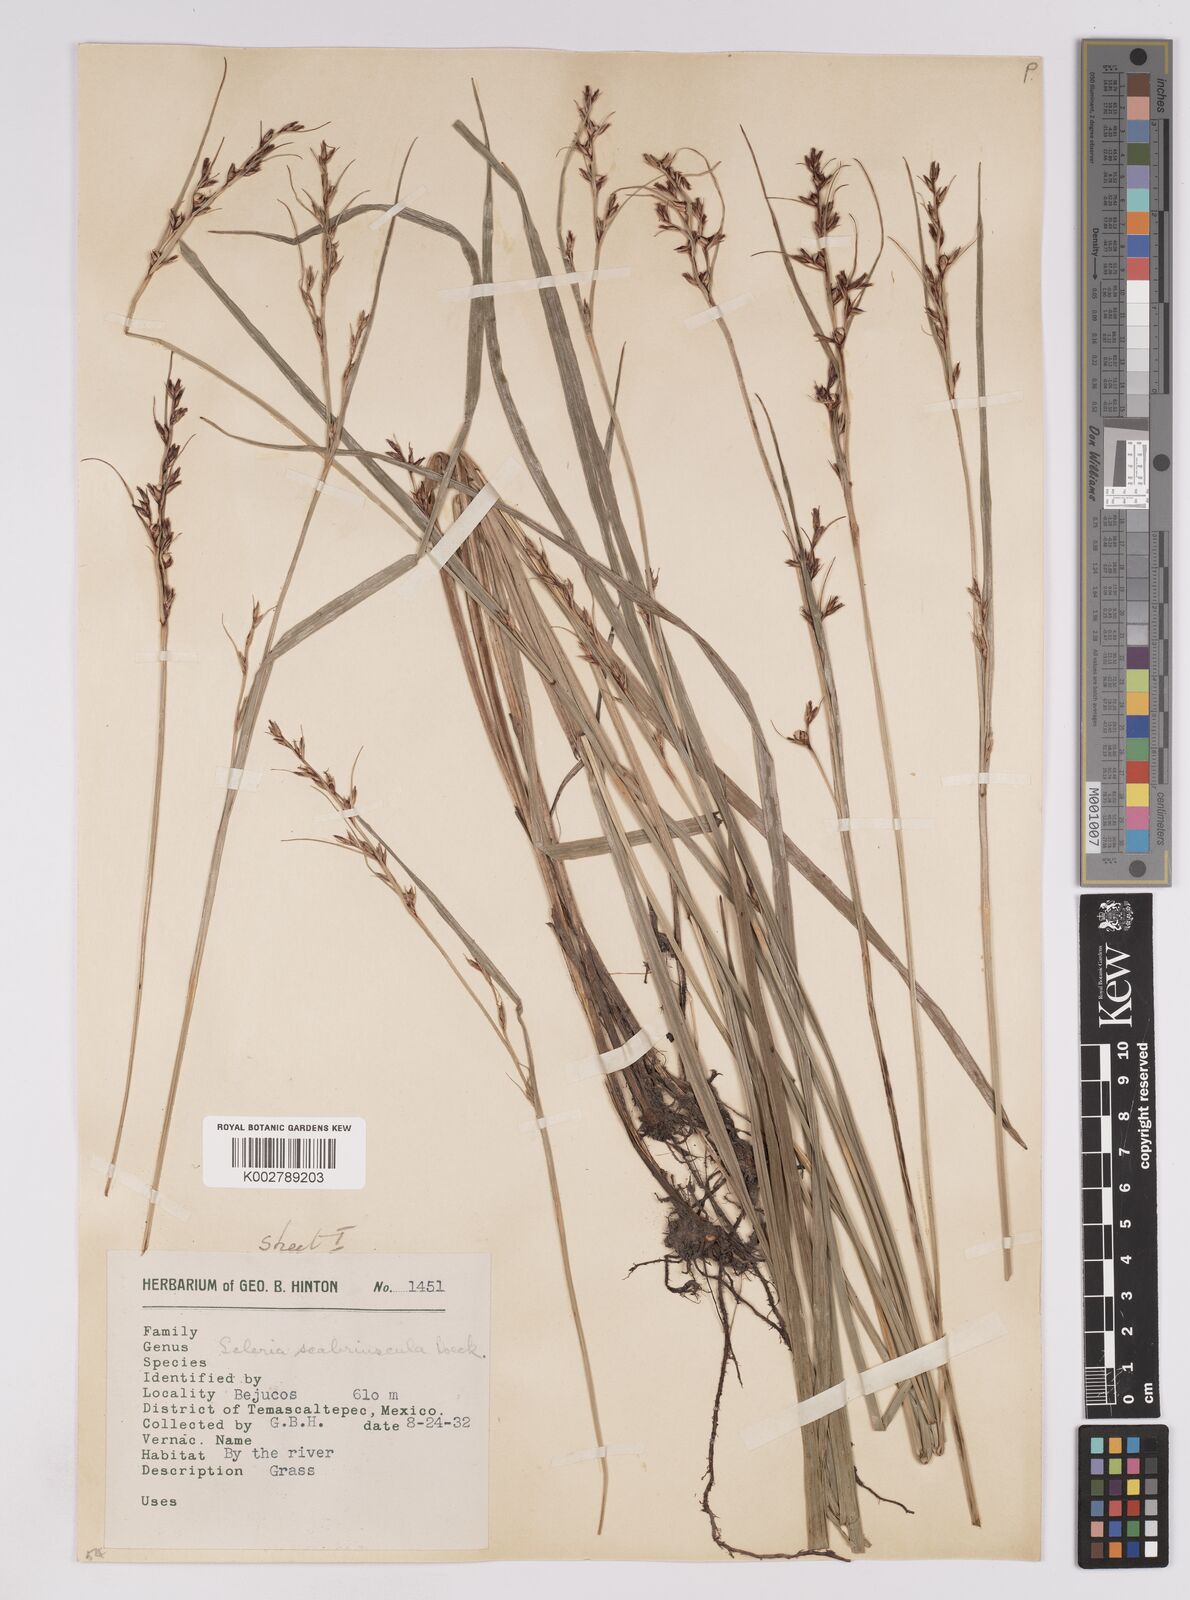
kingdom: Plantae
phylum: Tracheophyta
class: Liliopsida
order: Poales
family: Cyperaceae
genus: Scleria
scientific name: Scleria scabriuscula
